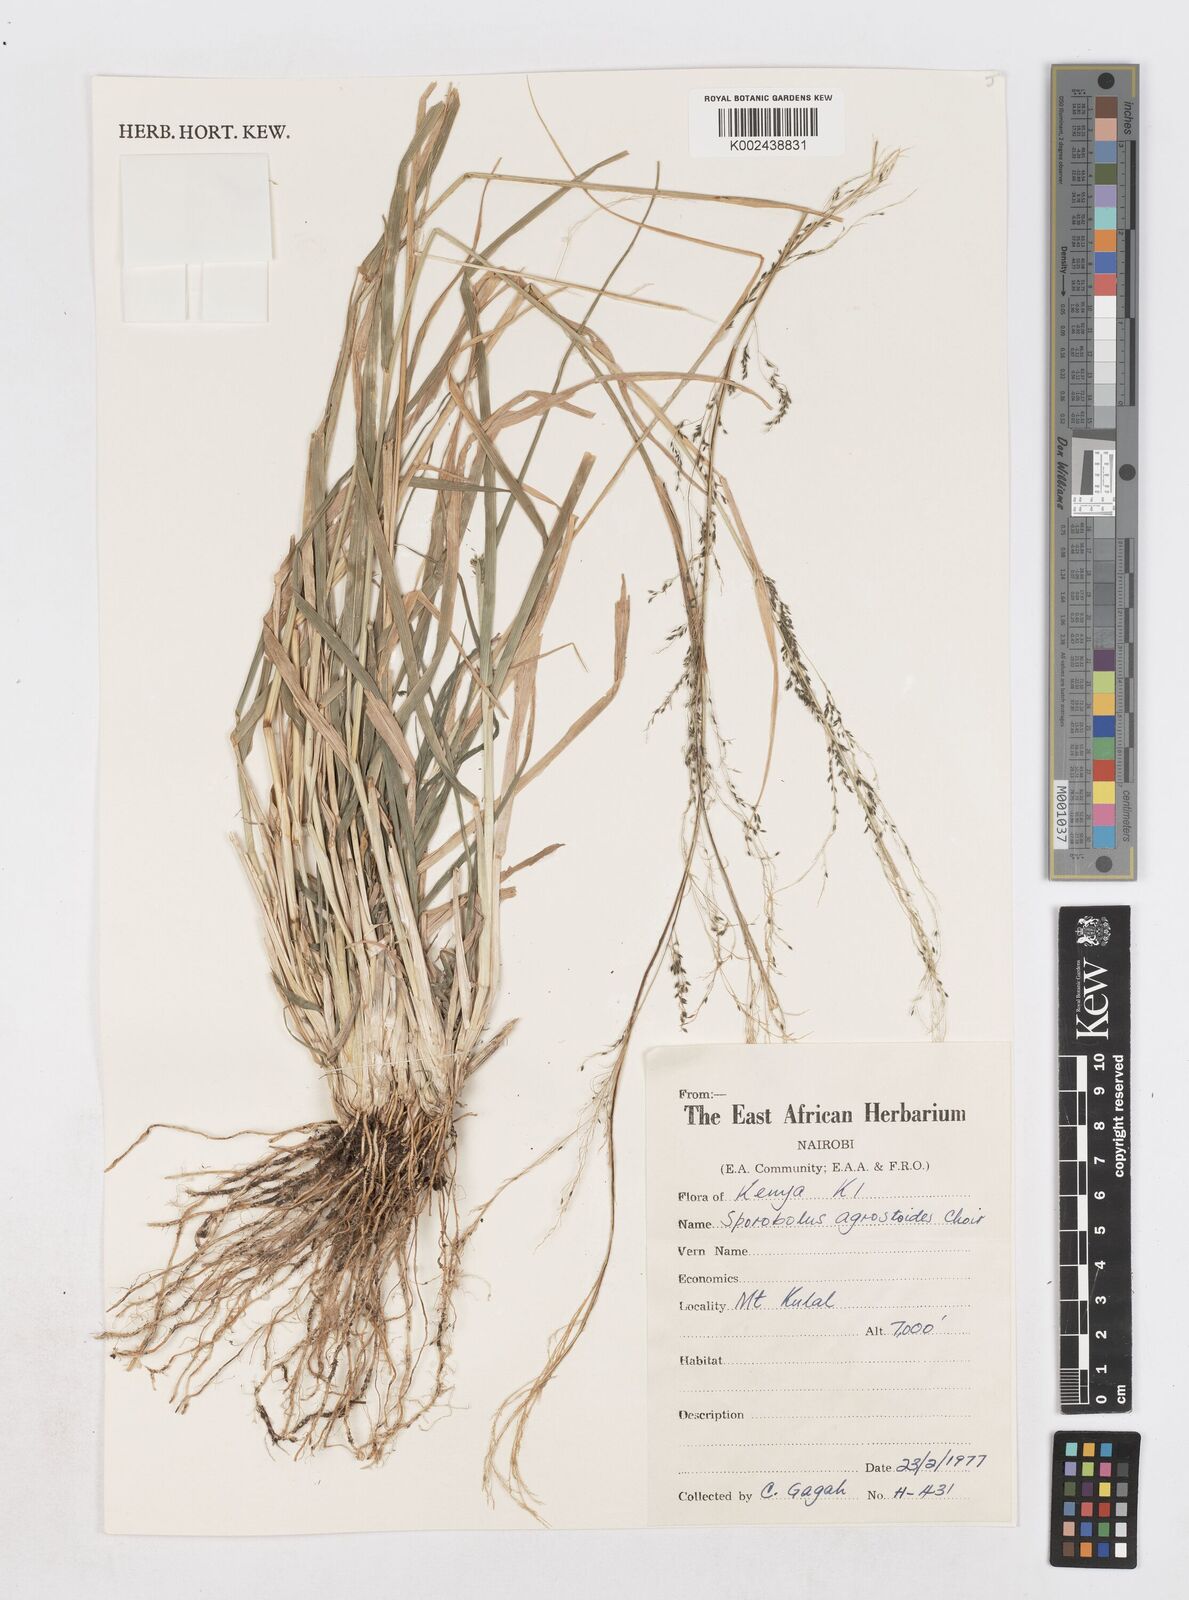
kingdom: Plantae
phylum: Tracheophyta
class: Liliopsida
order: Poales
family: Poaceae
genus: Sporobolus
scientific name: Sporobolus agrostoides
